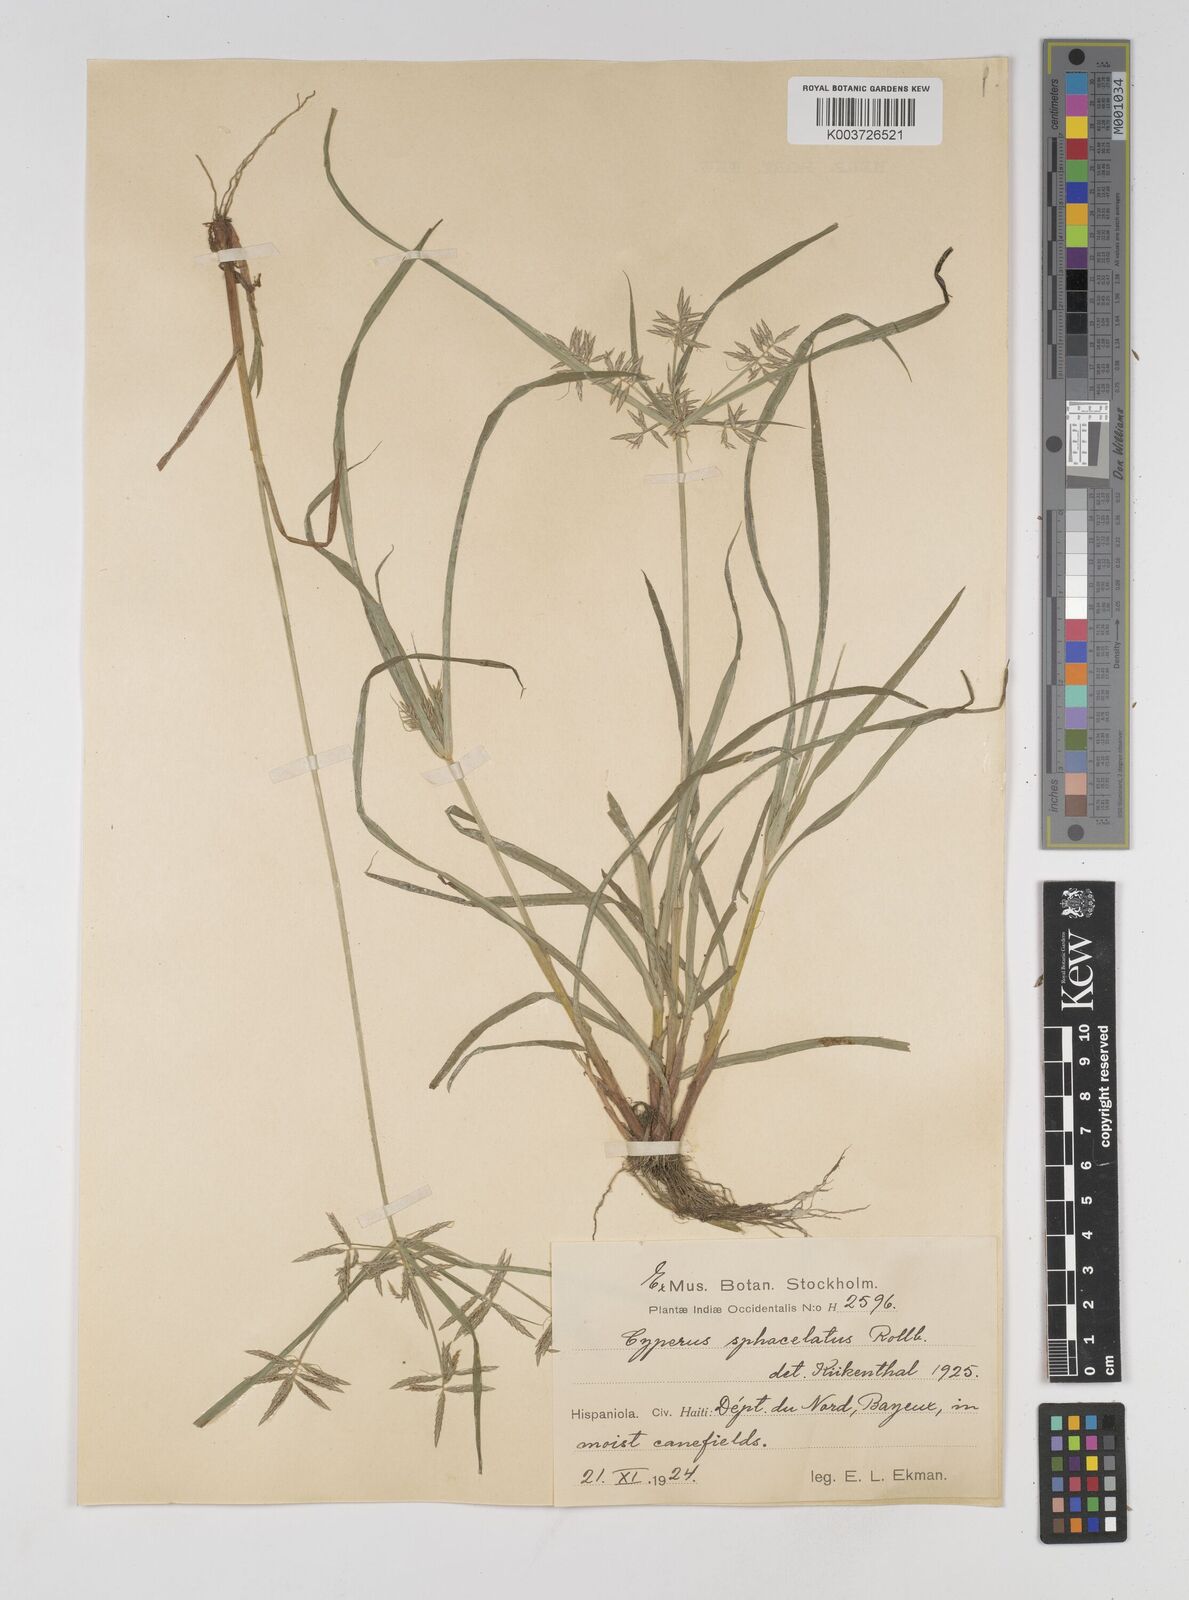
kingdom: Plantae
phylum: Tracheophyta
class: Liliopsida
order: Poales
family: Cyperaceae
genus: Cyperus
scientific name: Cyperus sphacelatus
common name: Roadside flatsedge
